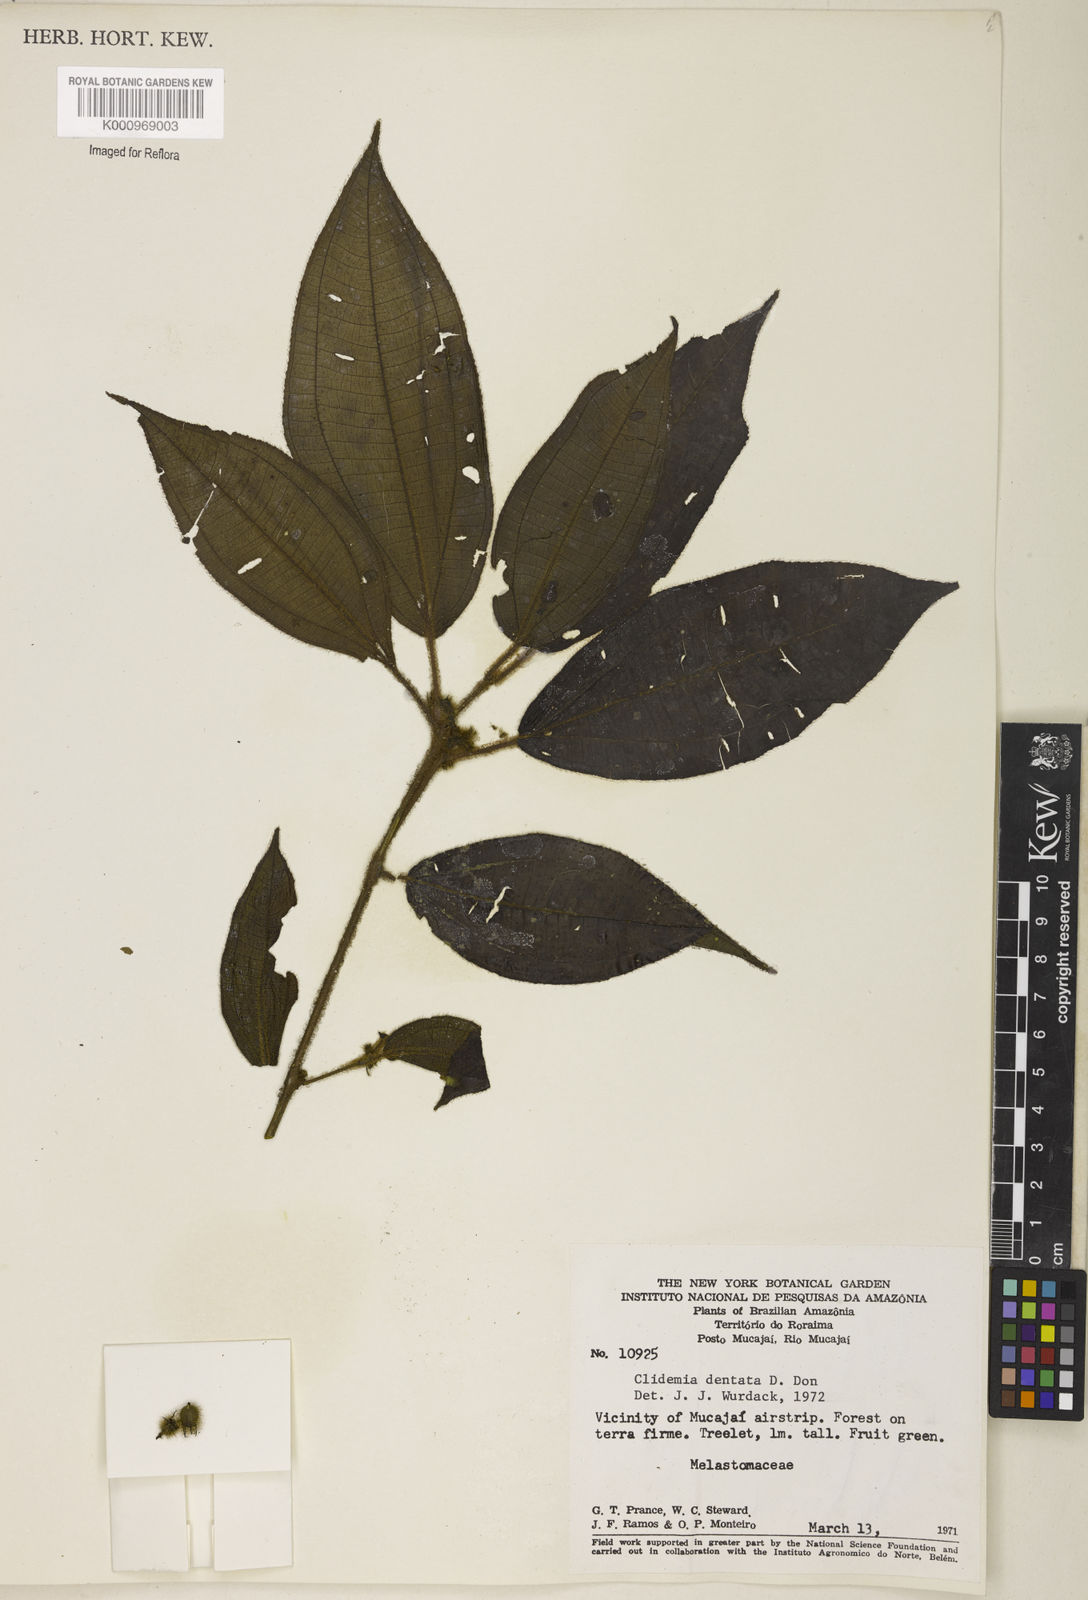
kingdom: Plantae
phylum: Tracheophyta
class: Magnoliopsida
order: Myrtales
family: Melastomataceae
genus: Miconia
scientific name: Miconia dentata
